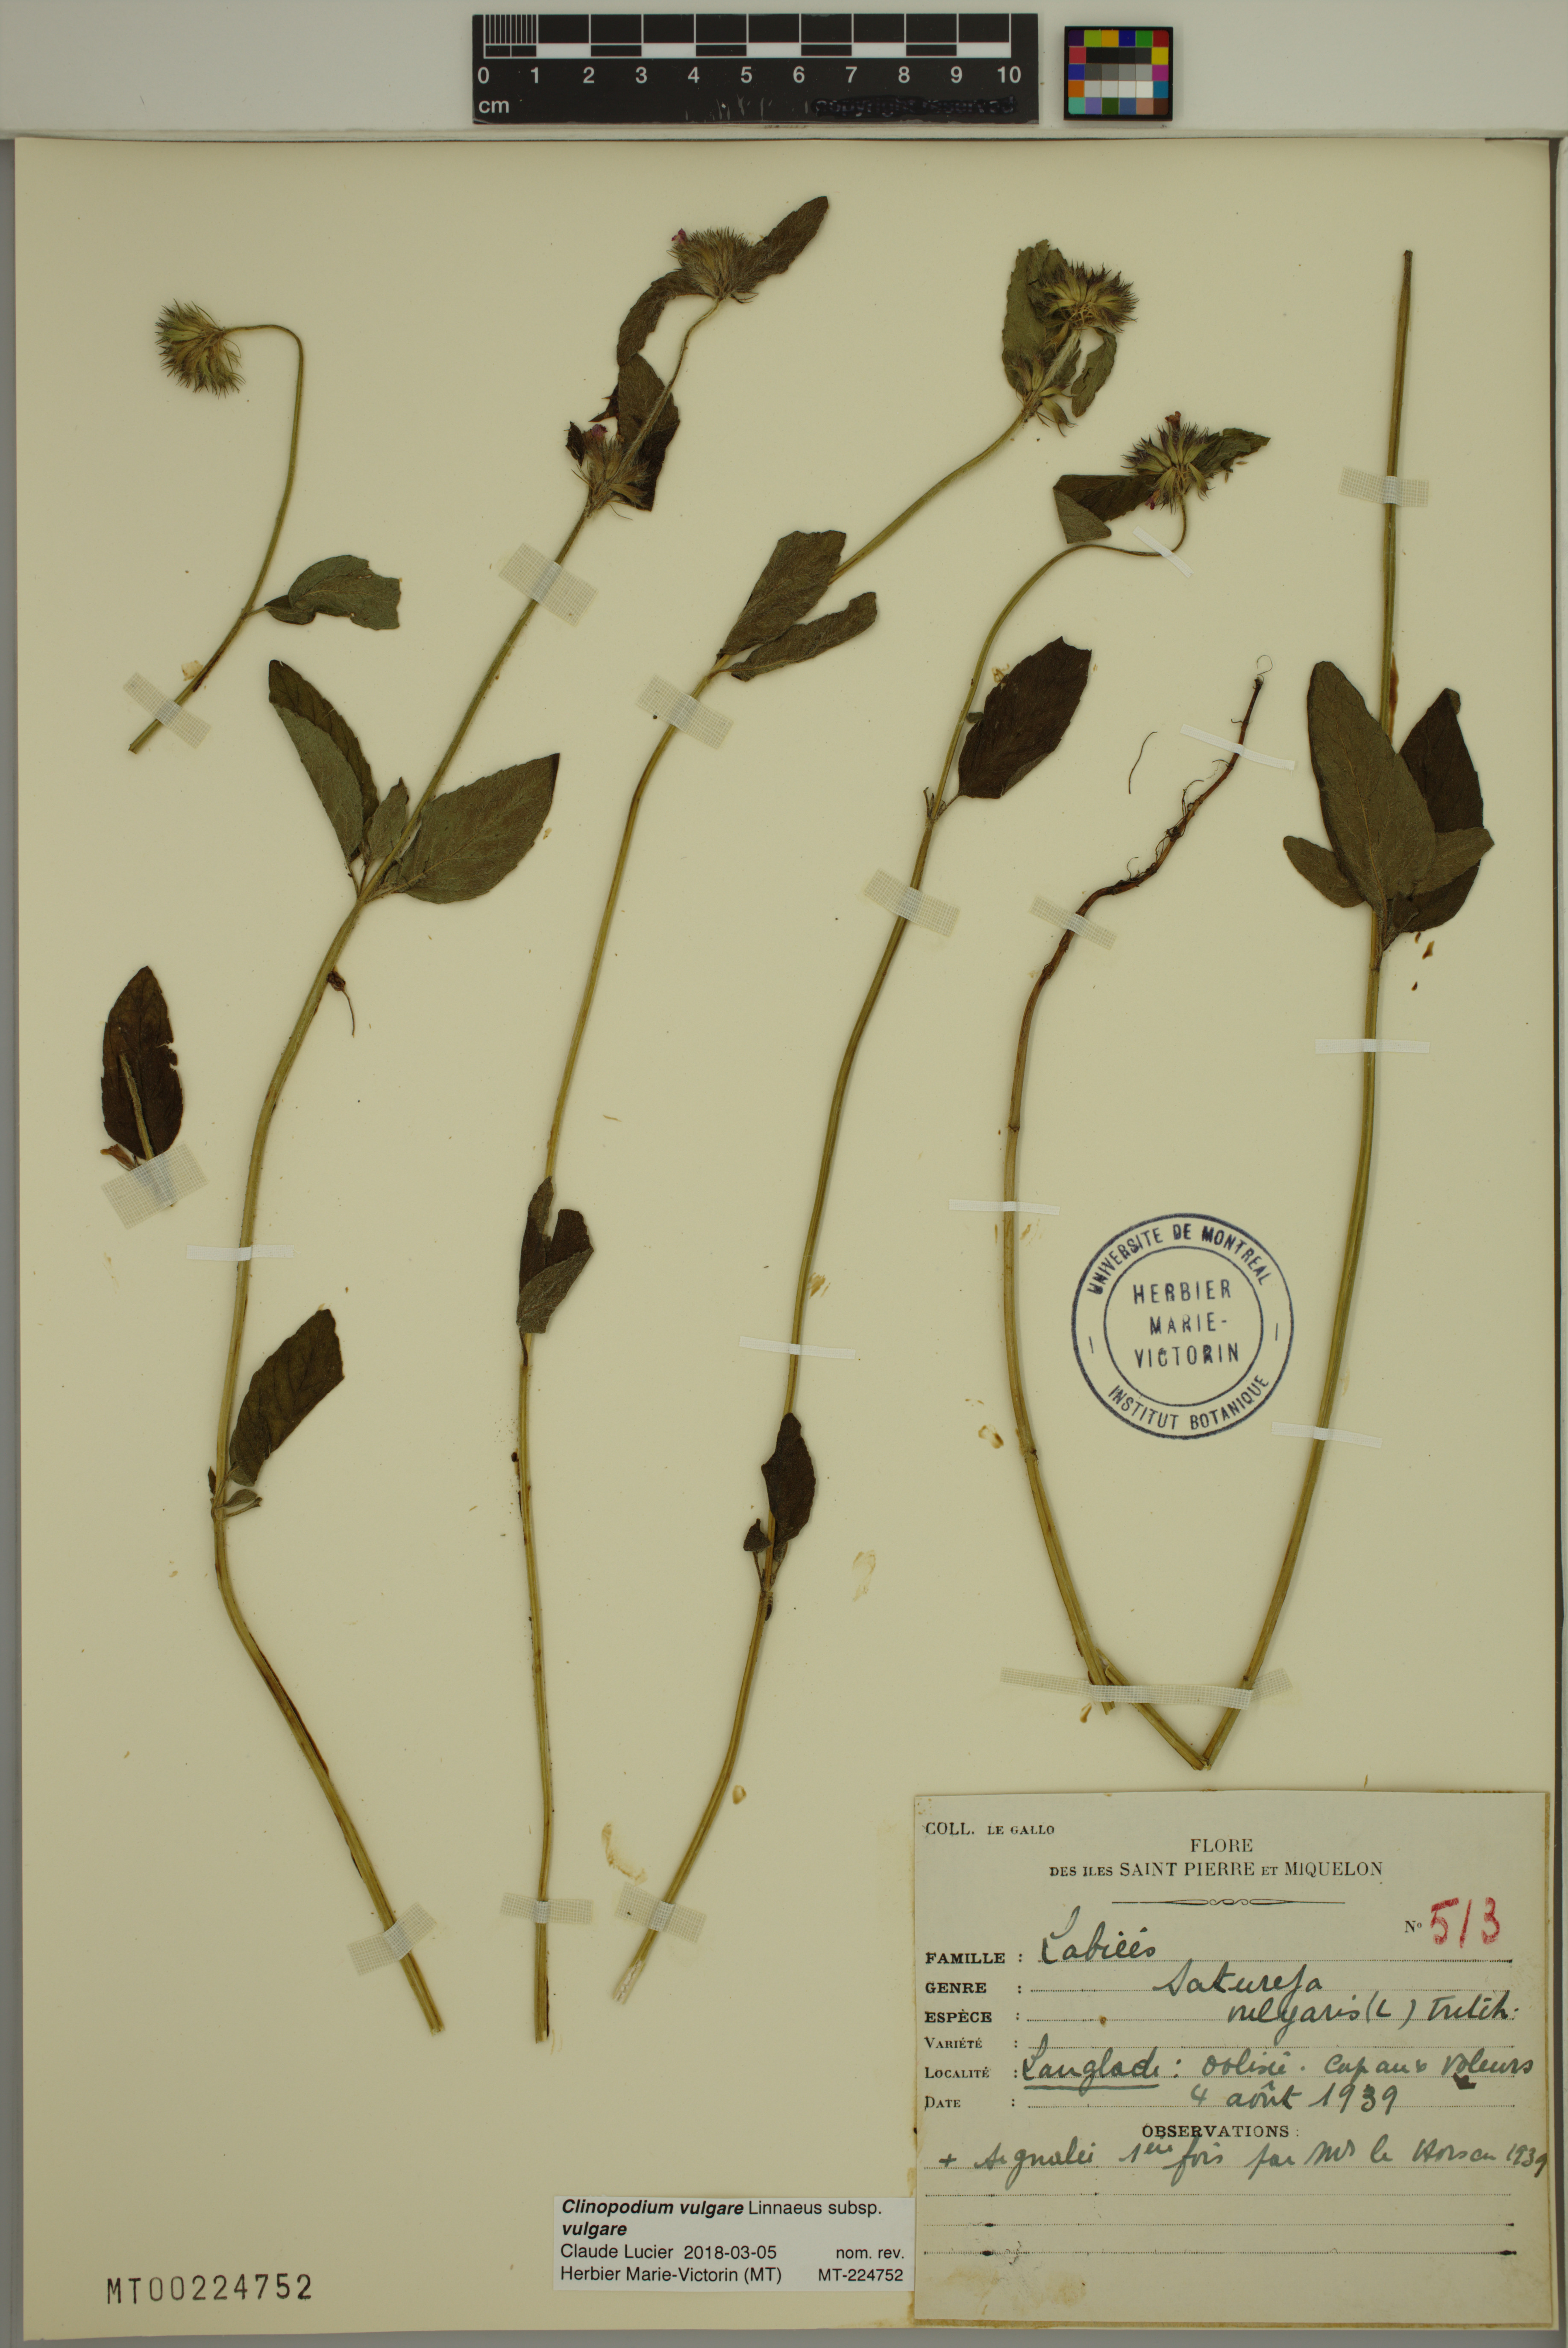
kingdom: Plantae
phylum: Tracheophyta
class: Magnoliopsida
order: Lamiales
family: Lamiaceae
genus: Clinopodium
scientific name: Clinopodium vulgare
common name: Wild basil
